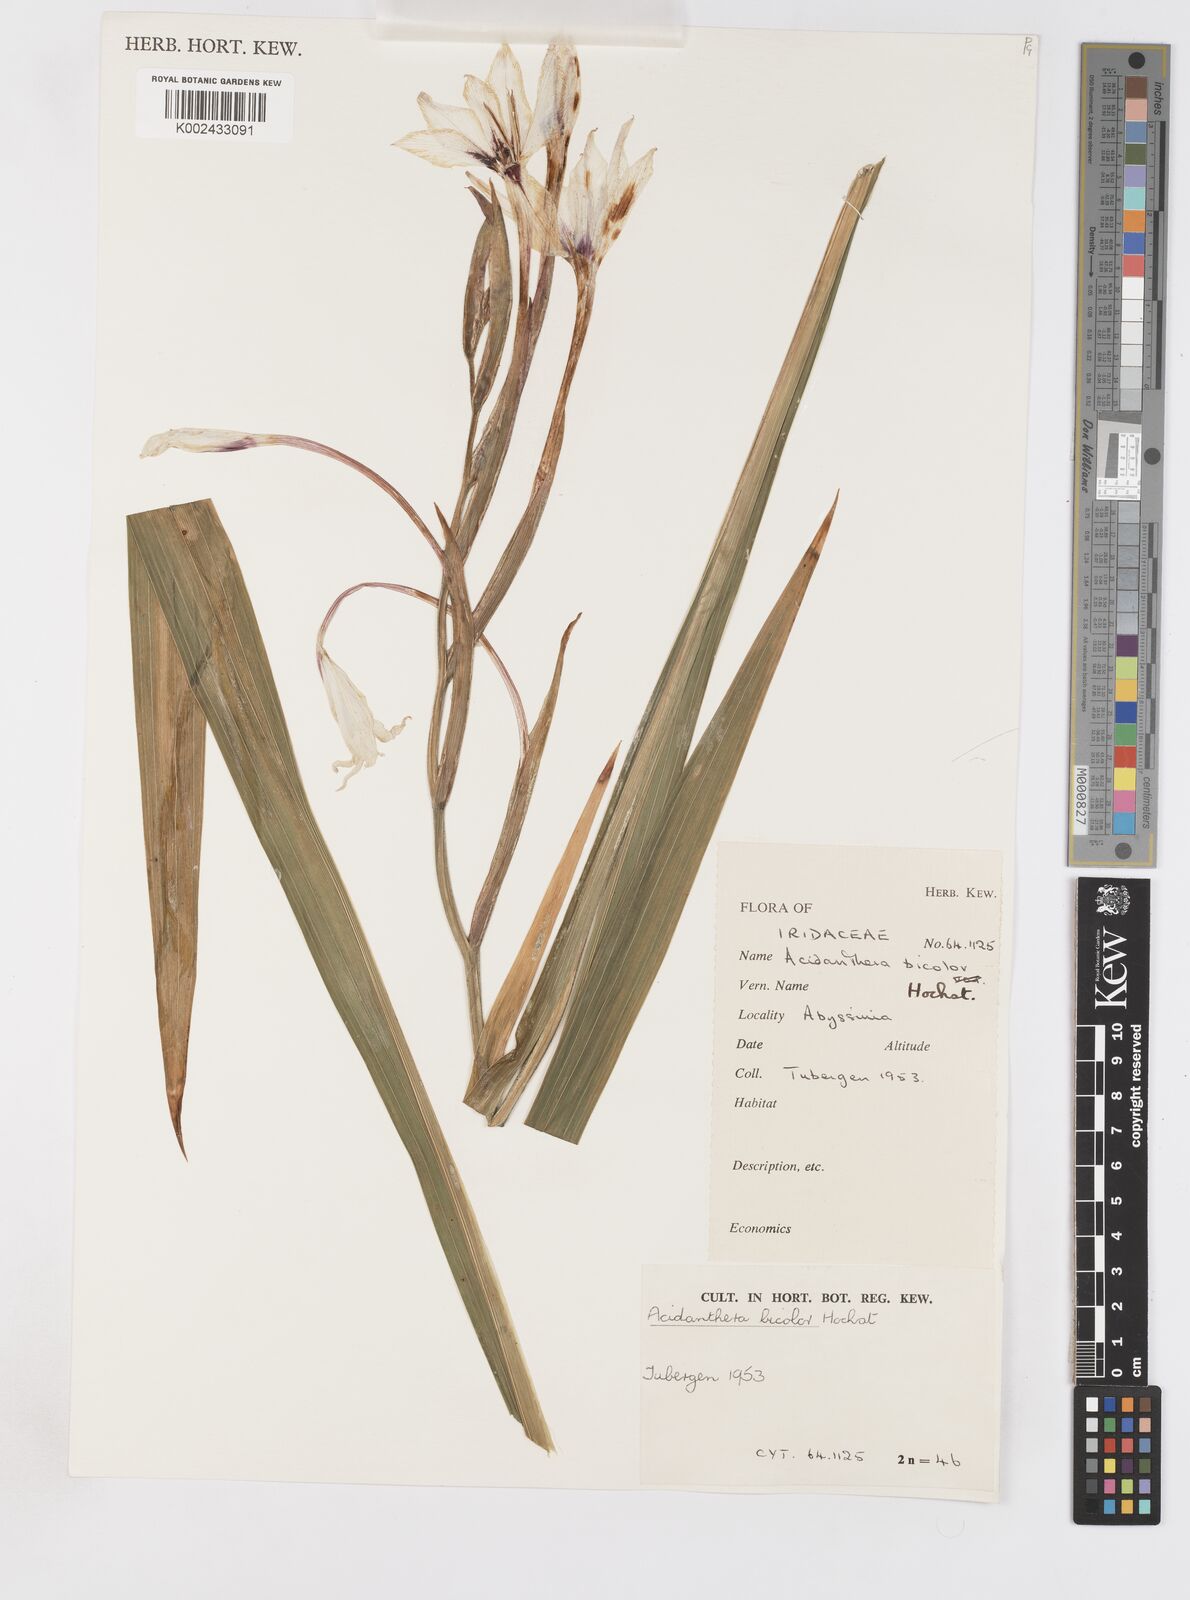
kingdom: Plantae
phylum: Tracheophyta
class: Liliopsida
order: Asparagales
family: Iridaceae
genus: Gladiolus
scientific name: Gladiolus murielae
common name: Acidanthera
